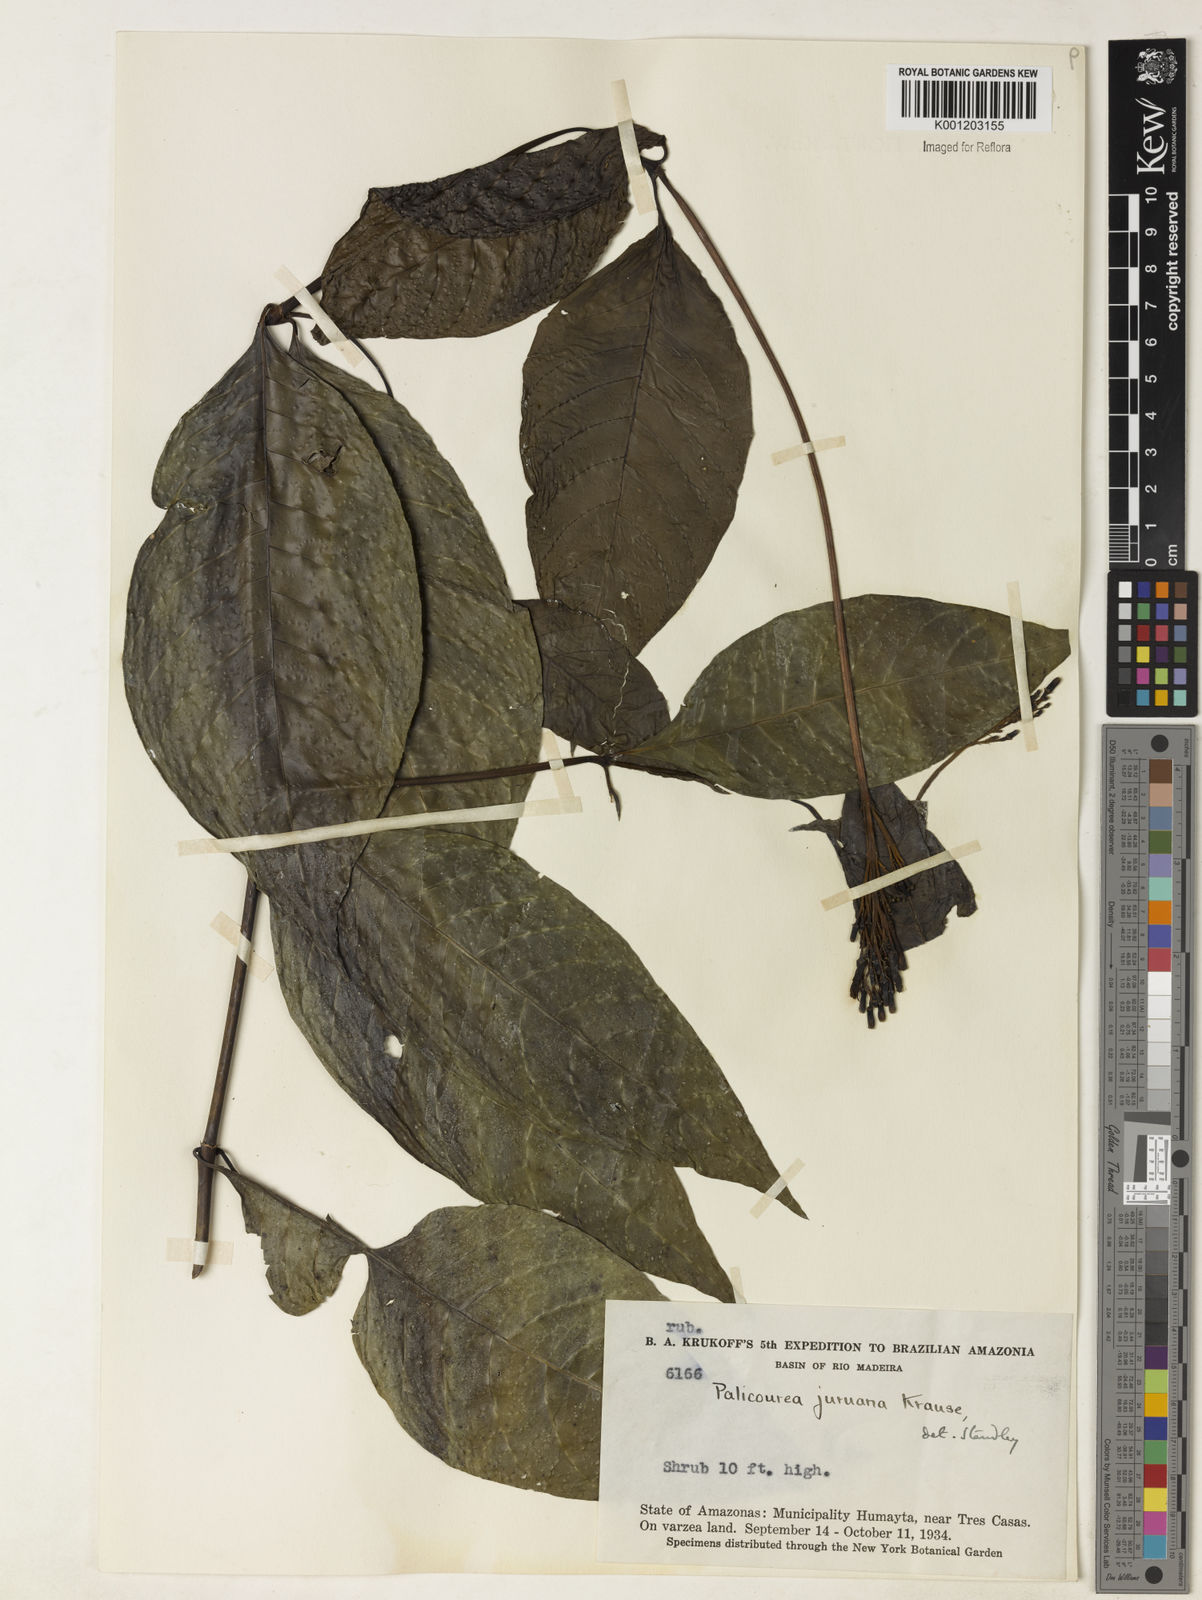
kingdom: Plantae
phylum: Tracheophyta
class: Magnoliopsida
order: Gentianales
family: Rubiaceae
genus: Palicourea
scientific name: Palicourea juruana
